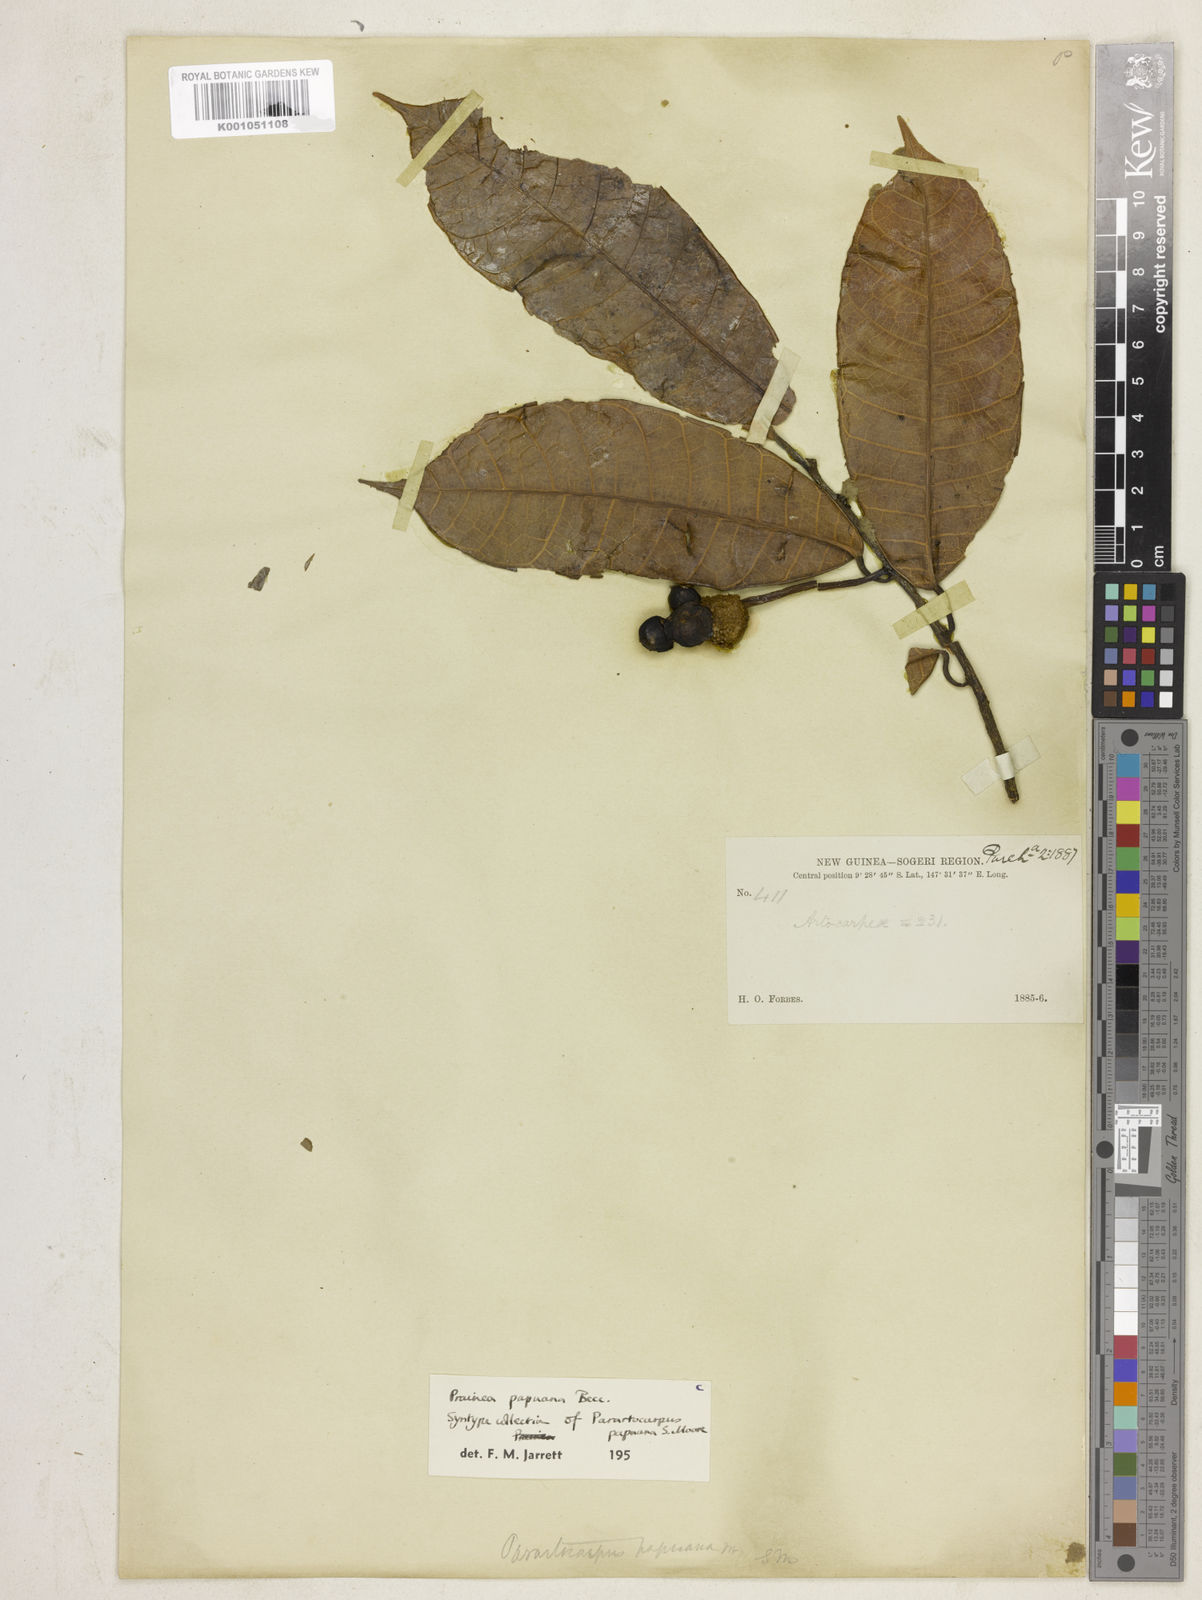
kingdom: Plantae
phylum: Tracheophyta
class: Magnoliopsida
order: Rosales
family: Moraceae
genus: Prainea
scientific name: Prainea limpato
